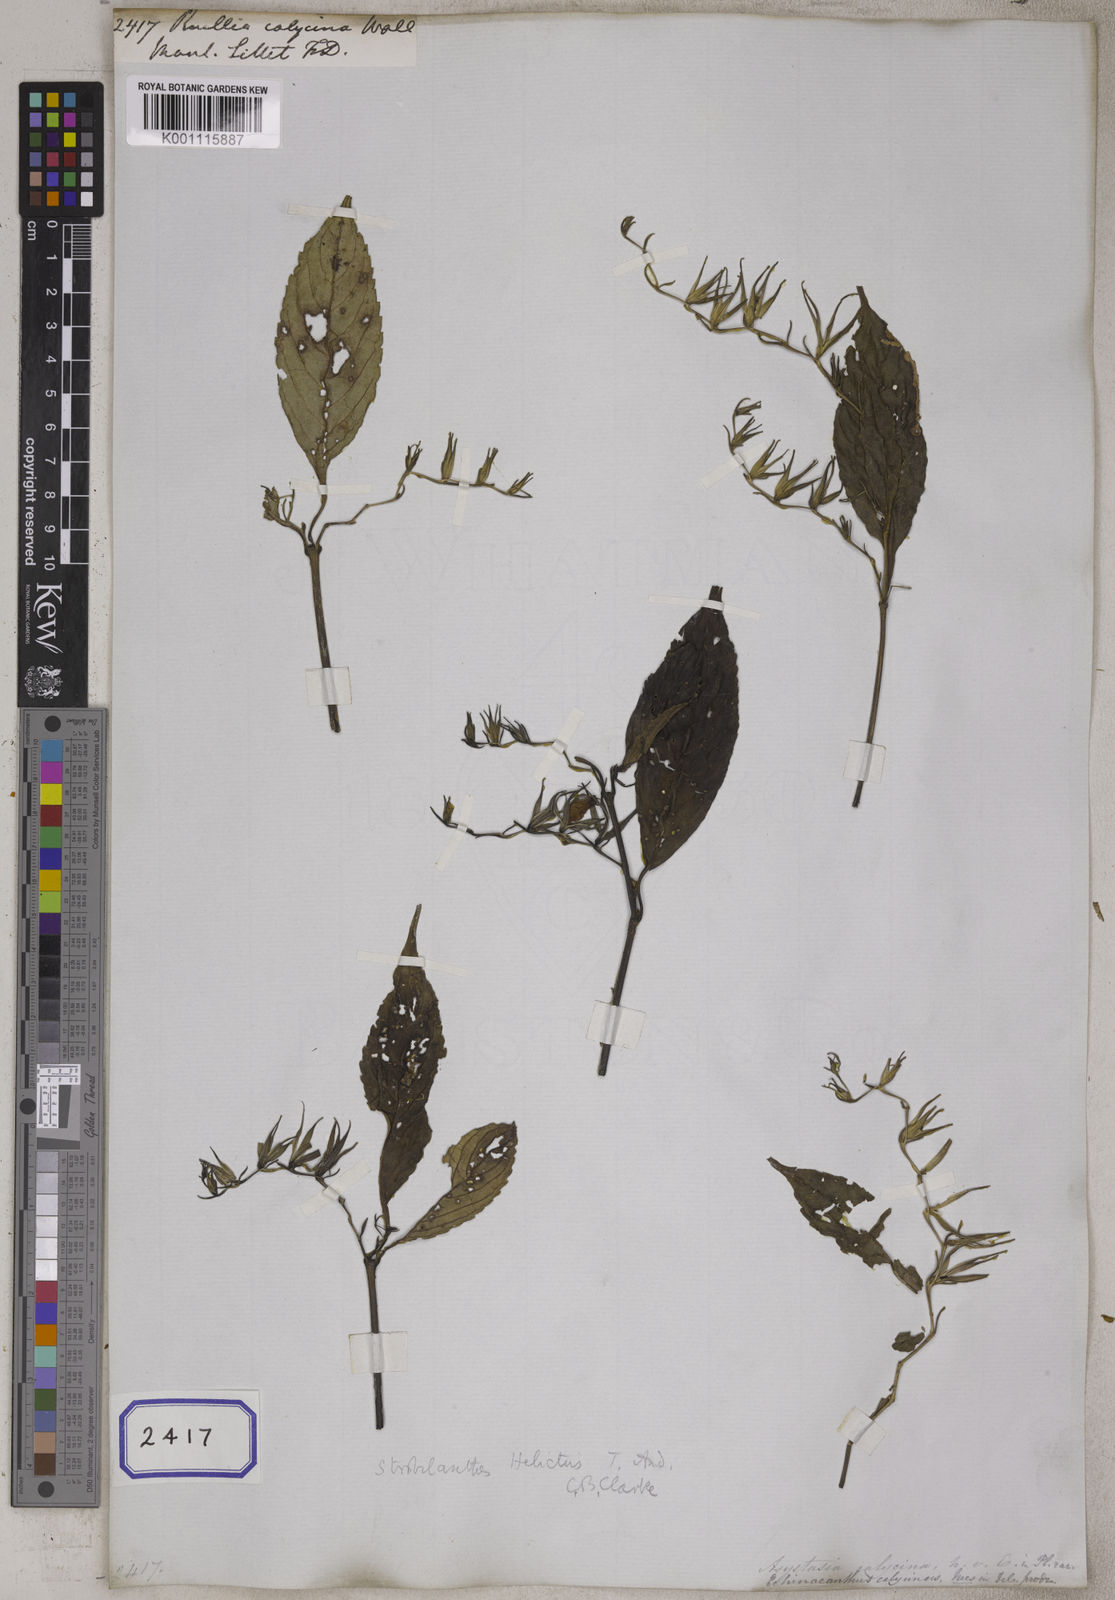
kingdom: Plantae
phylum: Tracheophyta
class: Magnoliopsida
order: Lamiales
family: Acanthaceae
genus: Strobilanthes
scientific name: Strobilanthes helicta
